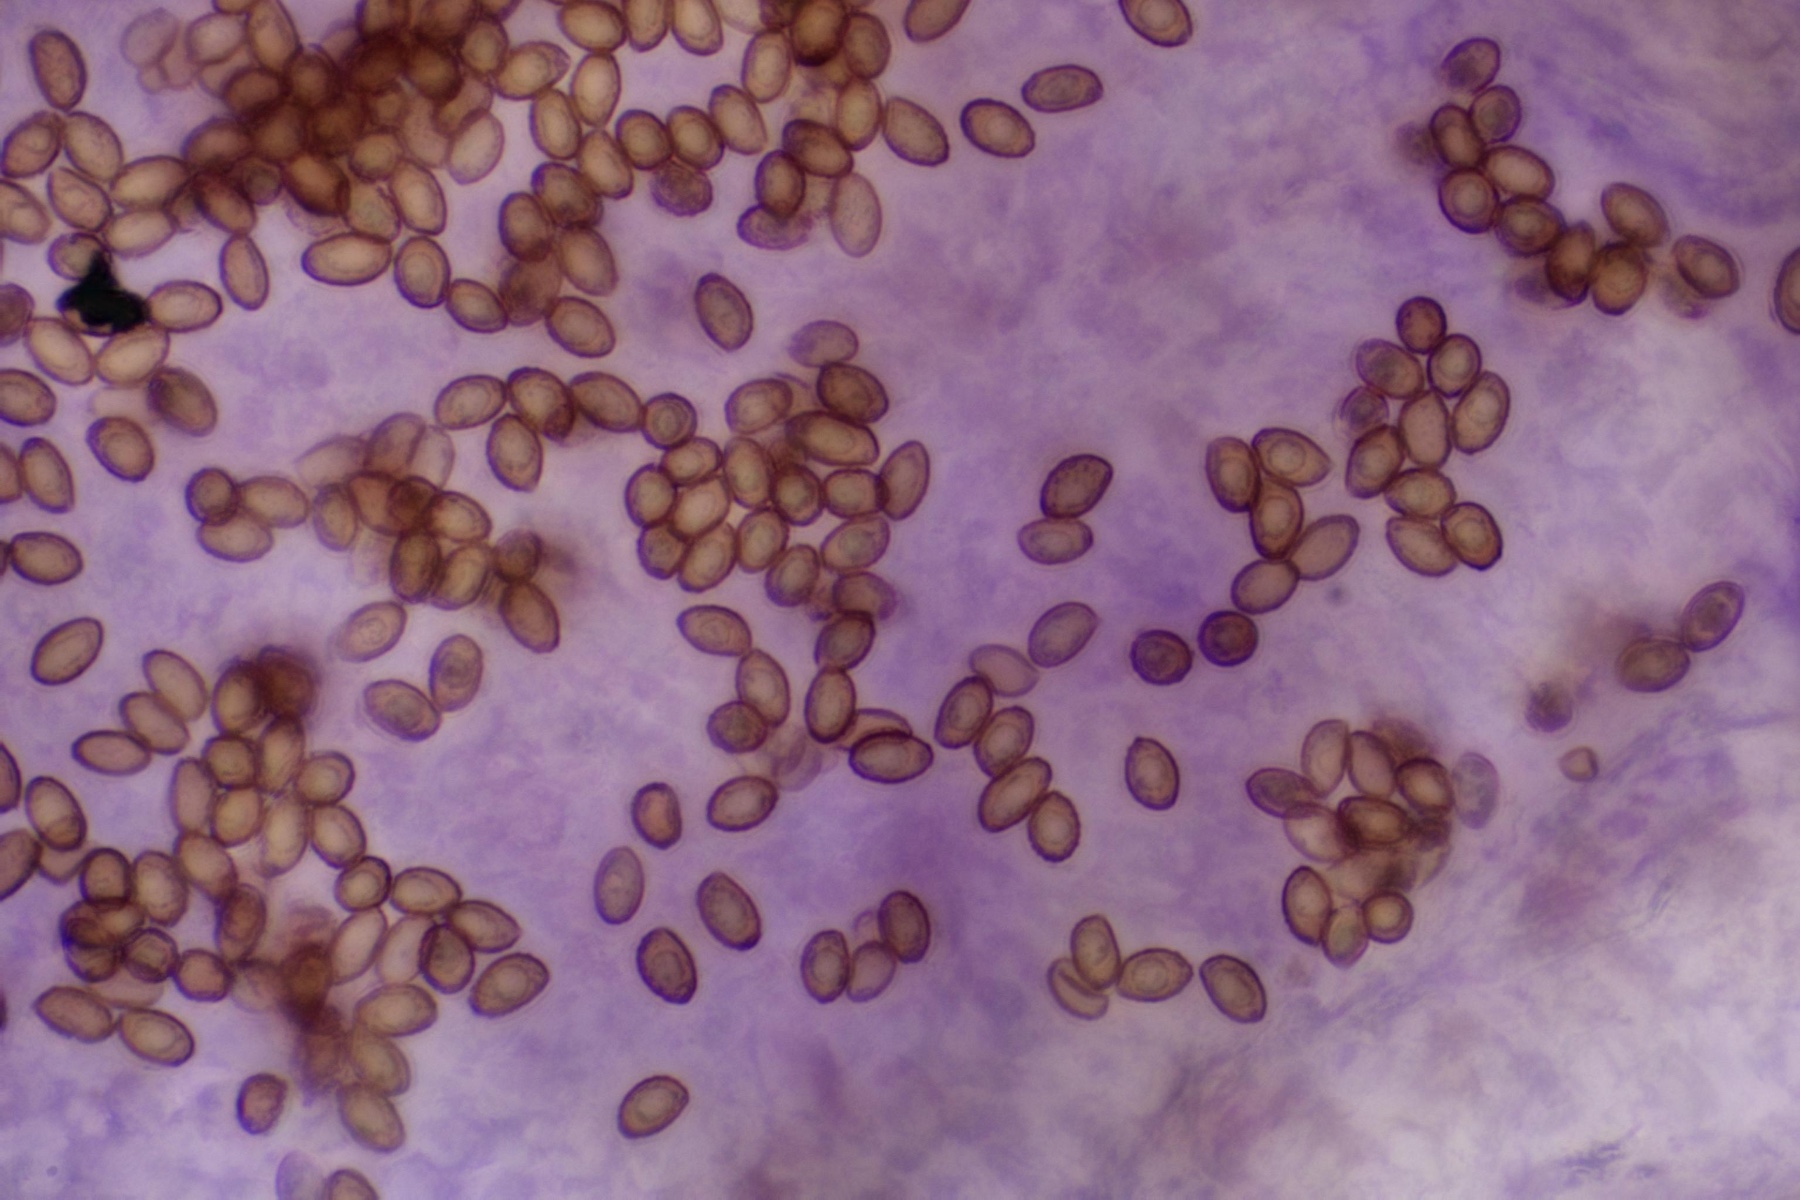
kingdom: Fungi
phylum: Basidiomycota
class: Agaricomycetes
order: Agaricales
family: Cortinariaceae
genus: Phlegmacium
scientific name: Phlegmacium cruentipellis
